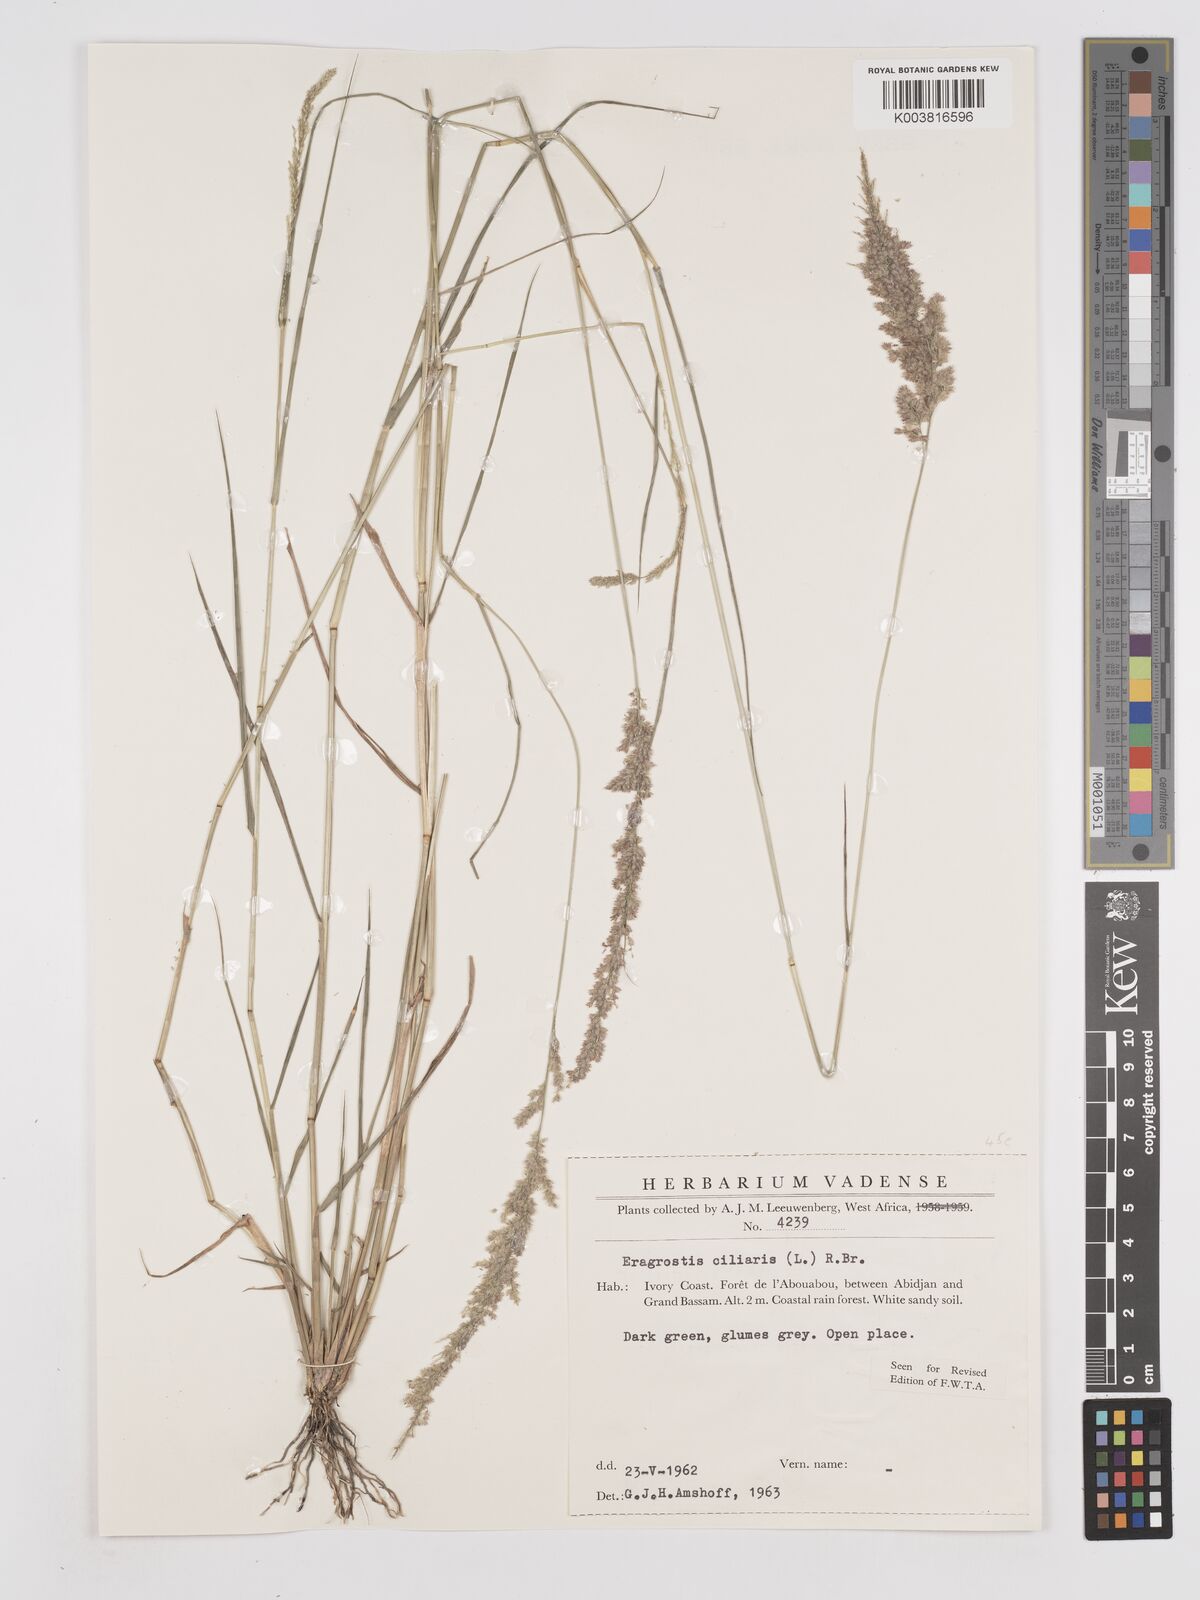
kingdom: Plantae
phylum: Tracheophyta
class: Liliopsida
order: Poales
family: Poaceae
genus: Eragrostis
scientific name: Eragrostis ciliaris
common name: Gophertail lovegrass
